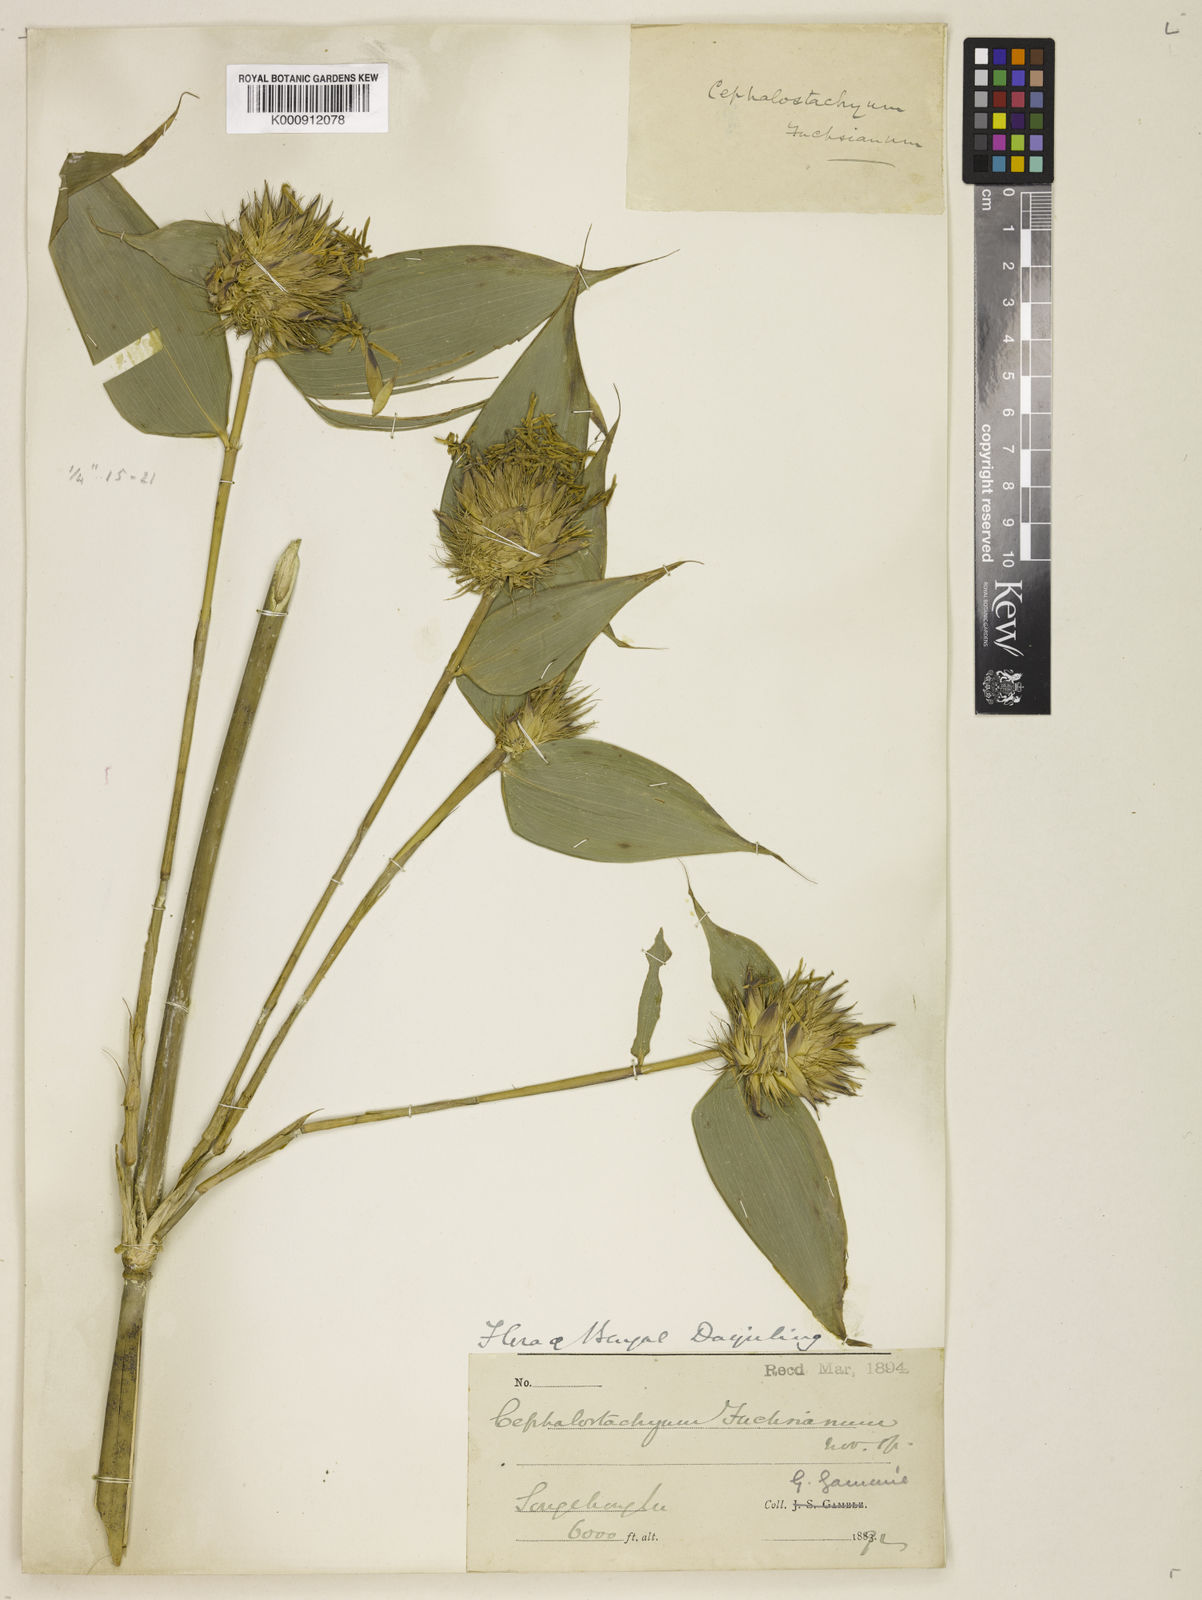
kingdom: Plantae
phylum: Tracheophyta
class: Liliopsida
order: Poales
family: Poaceae
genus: Cephalostachyum
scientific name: Cephalostachyum latifolium
